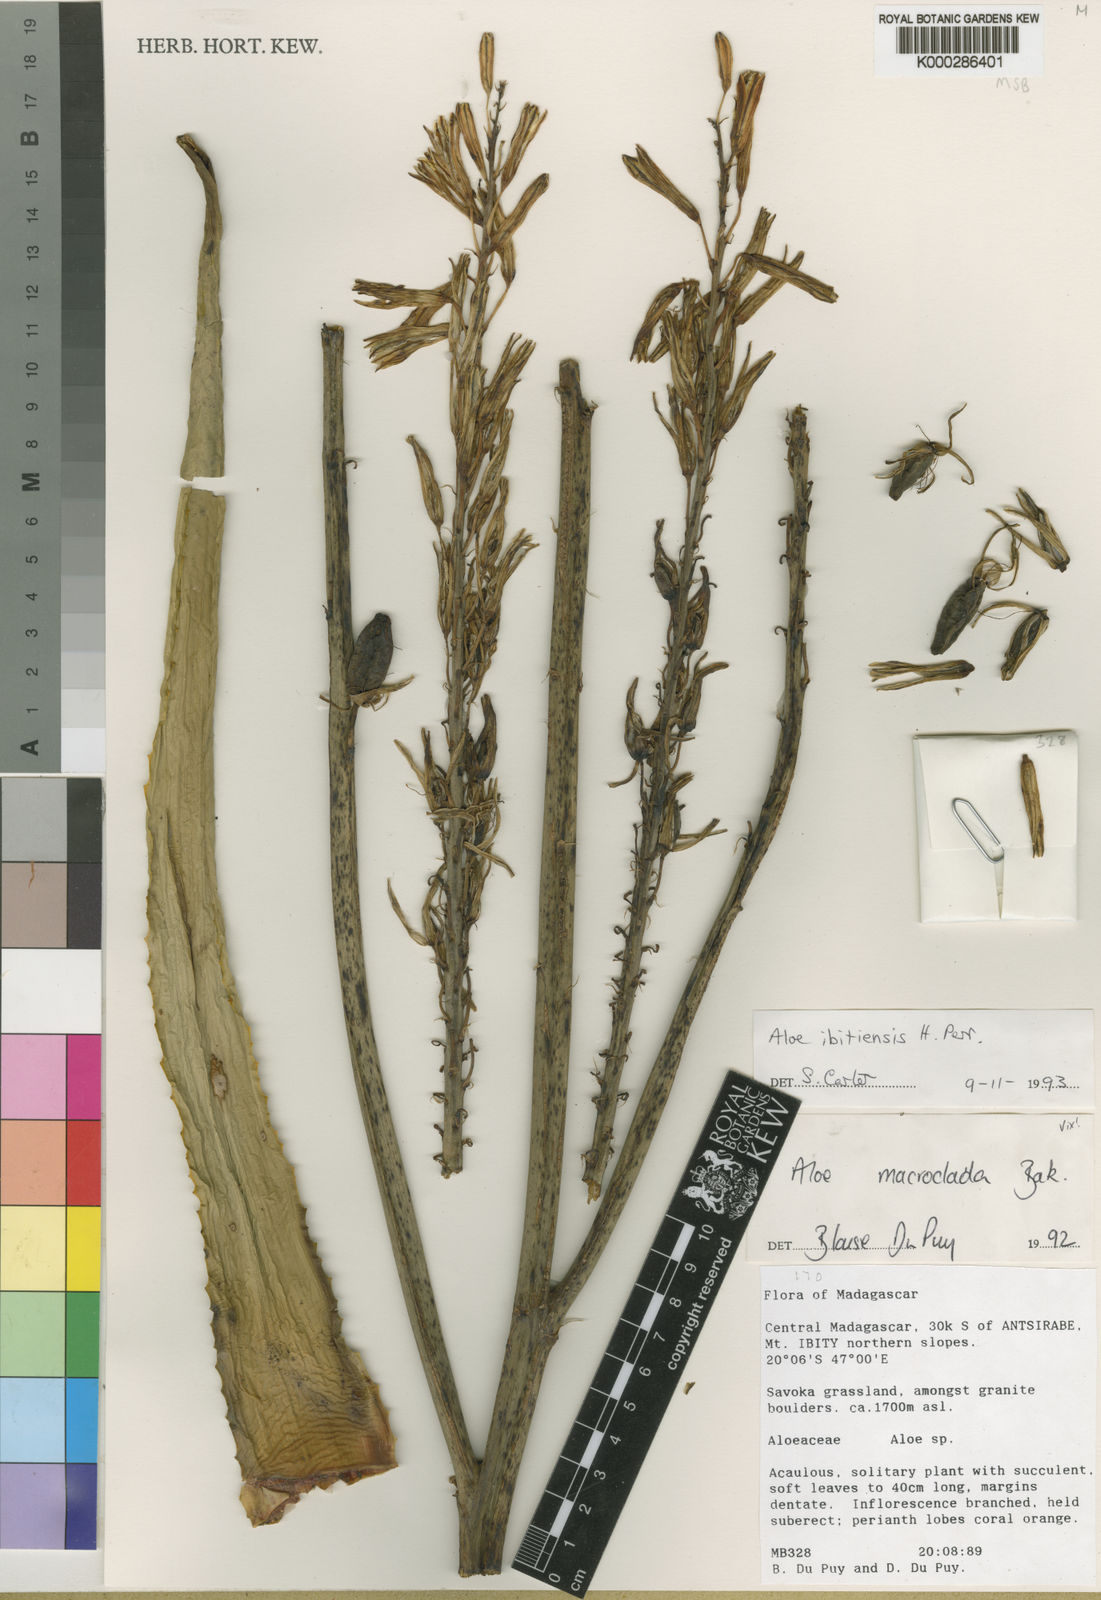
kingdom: Plantae
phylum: Tracheophyta
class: Liliopsida
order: Asparagales
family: Asphodelaceae
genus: Aloe
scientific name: Aloe
